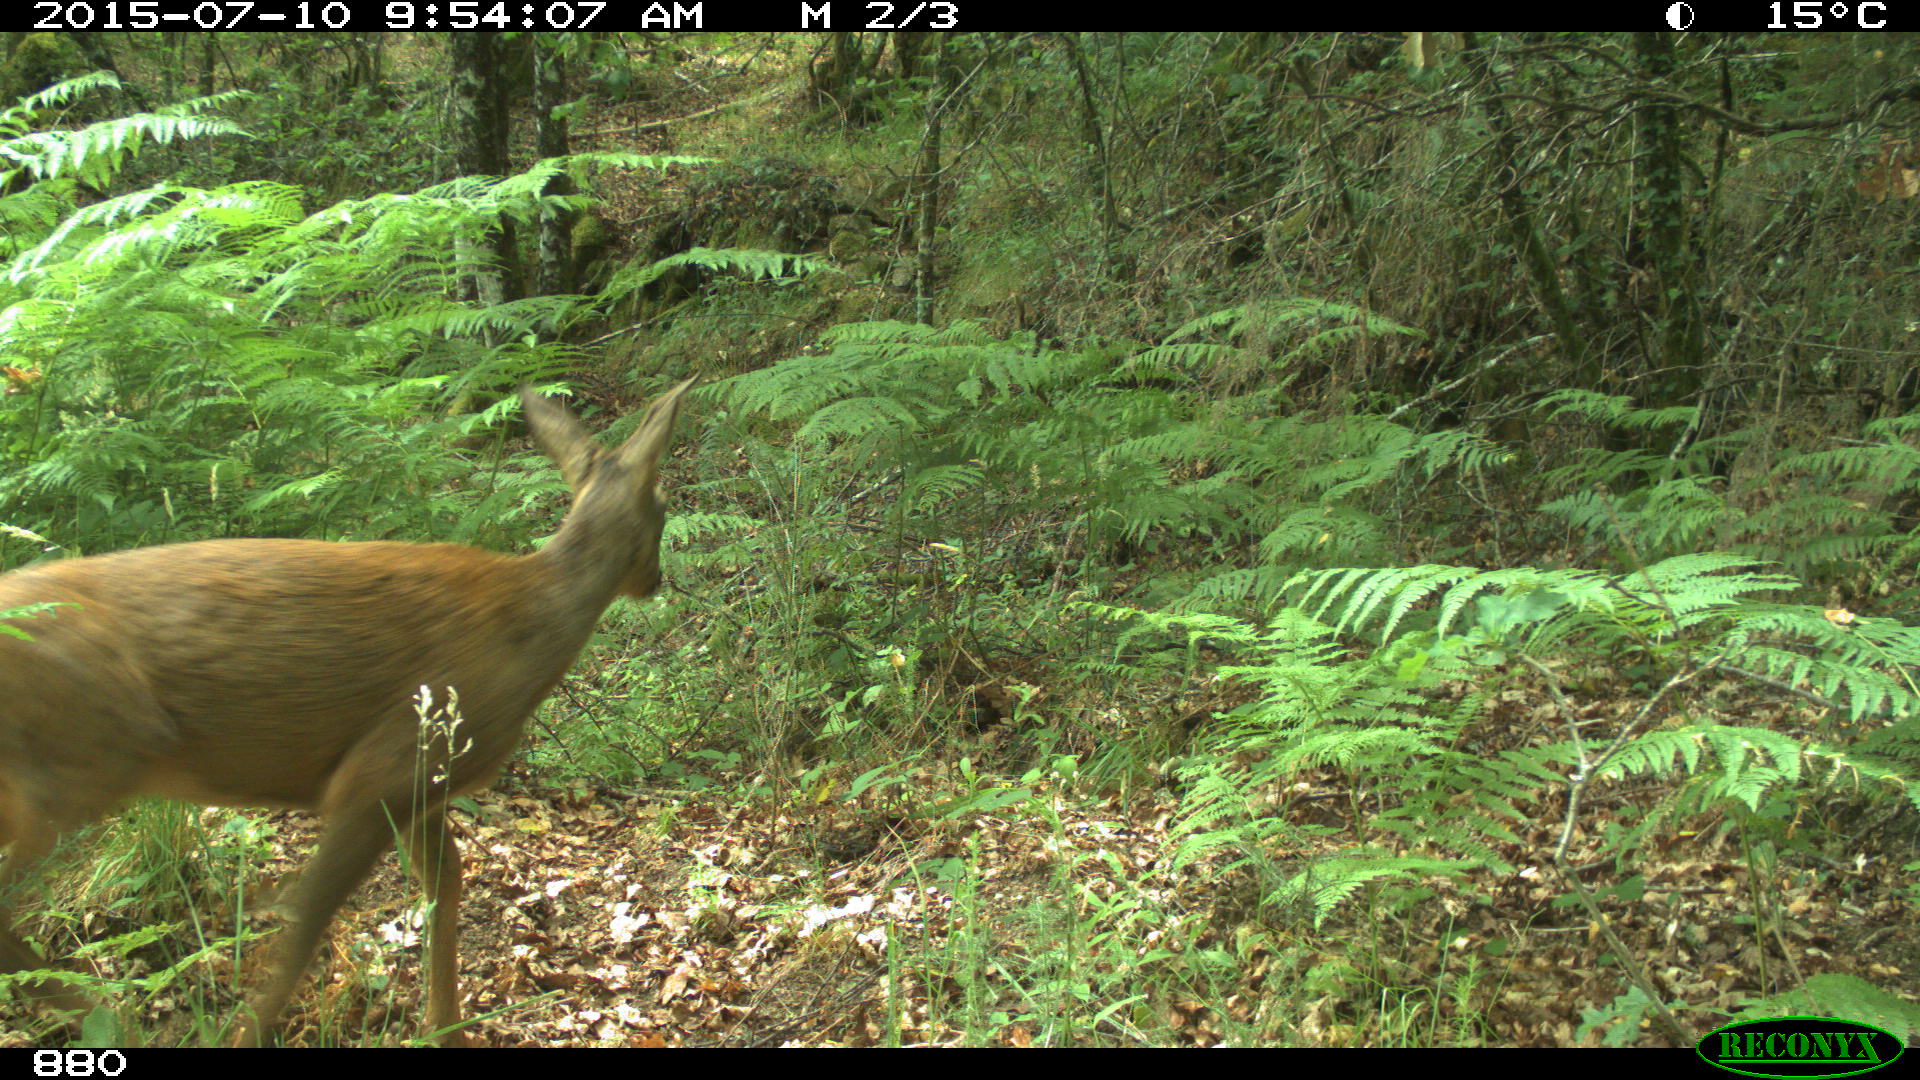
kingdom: Animalia
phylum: Chordata
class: Mammalia
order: Artiodactyla
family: Cervidae
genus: Capreolus
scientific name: Capreolus capreolus
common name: Western roe deer
